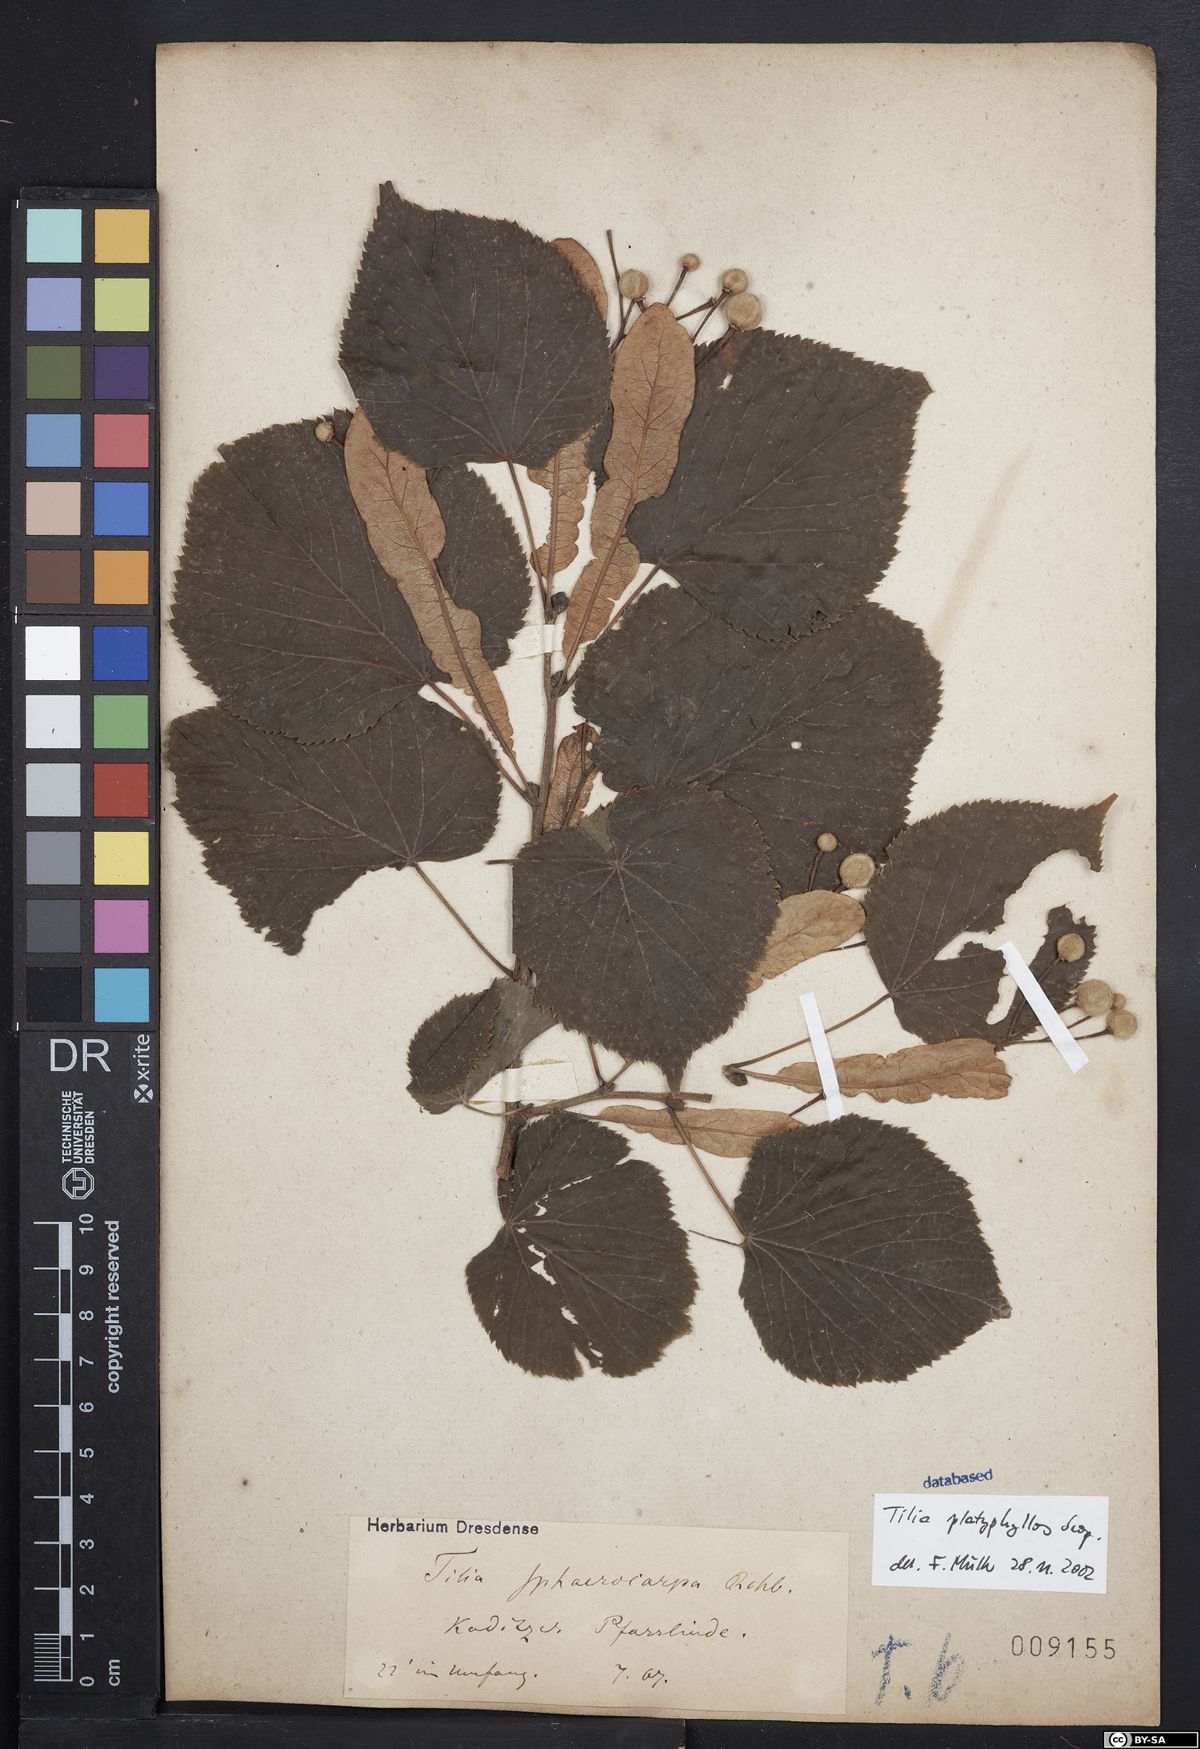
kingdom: Plantae
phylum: Tracheophyta
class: Magnoliopsida
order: Malvales
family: Malvaceae
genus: Tilia
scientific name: Tilia platyphyllos
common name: Large-leaved lime
